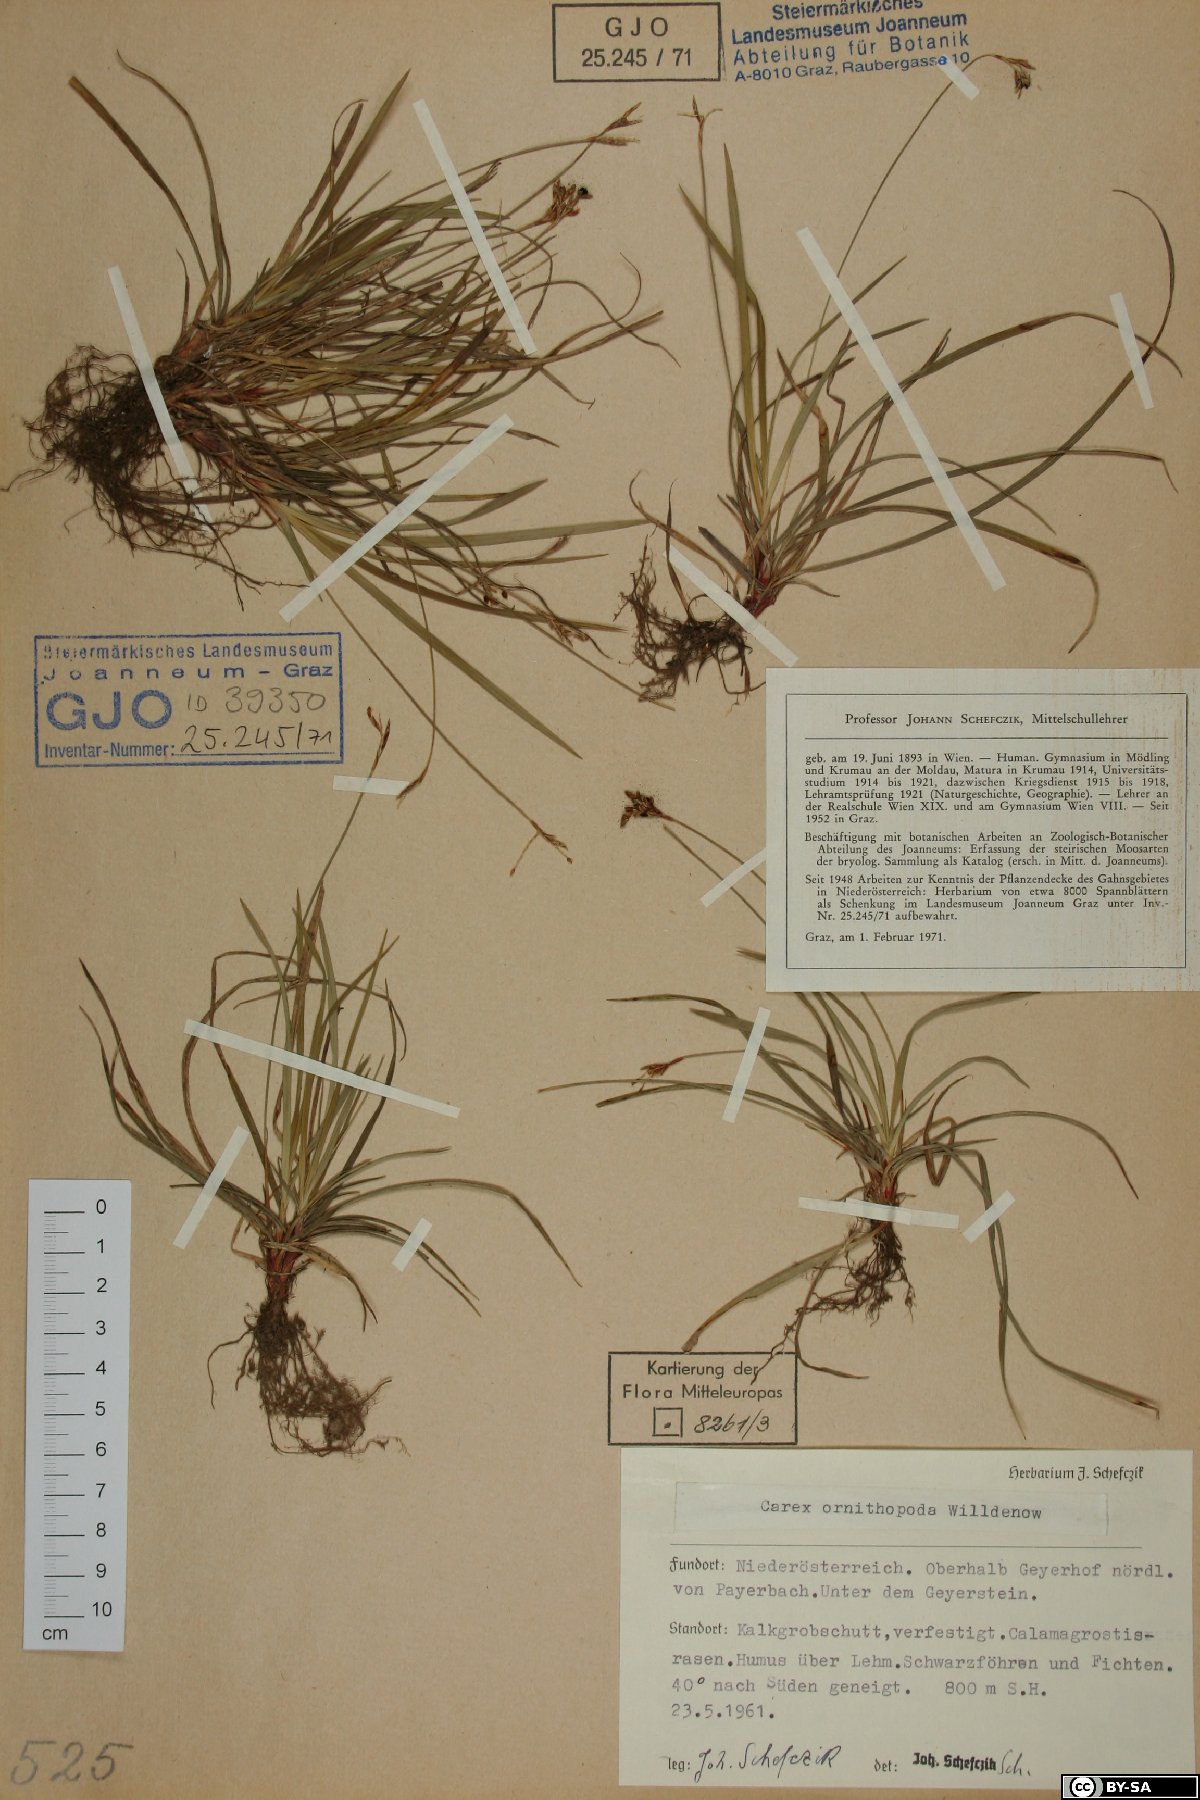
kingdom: Plantae
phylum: Tracheophyta
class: Liliopsida
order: Poales
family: Cyperaceae
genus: Carex
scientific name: Carex ornithopoda
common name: Bird's-foot sedge
